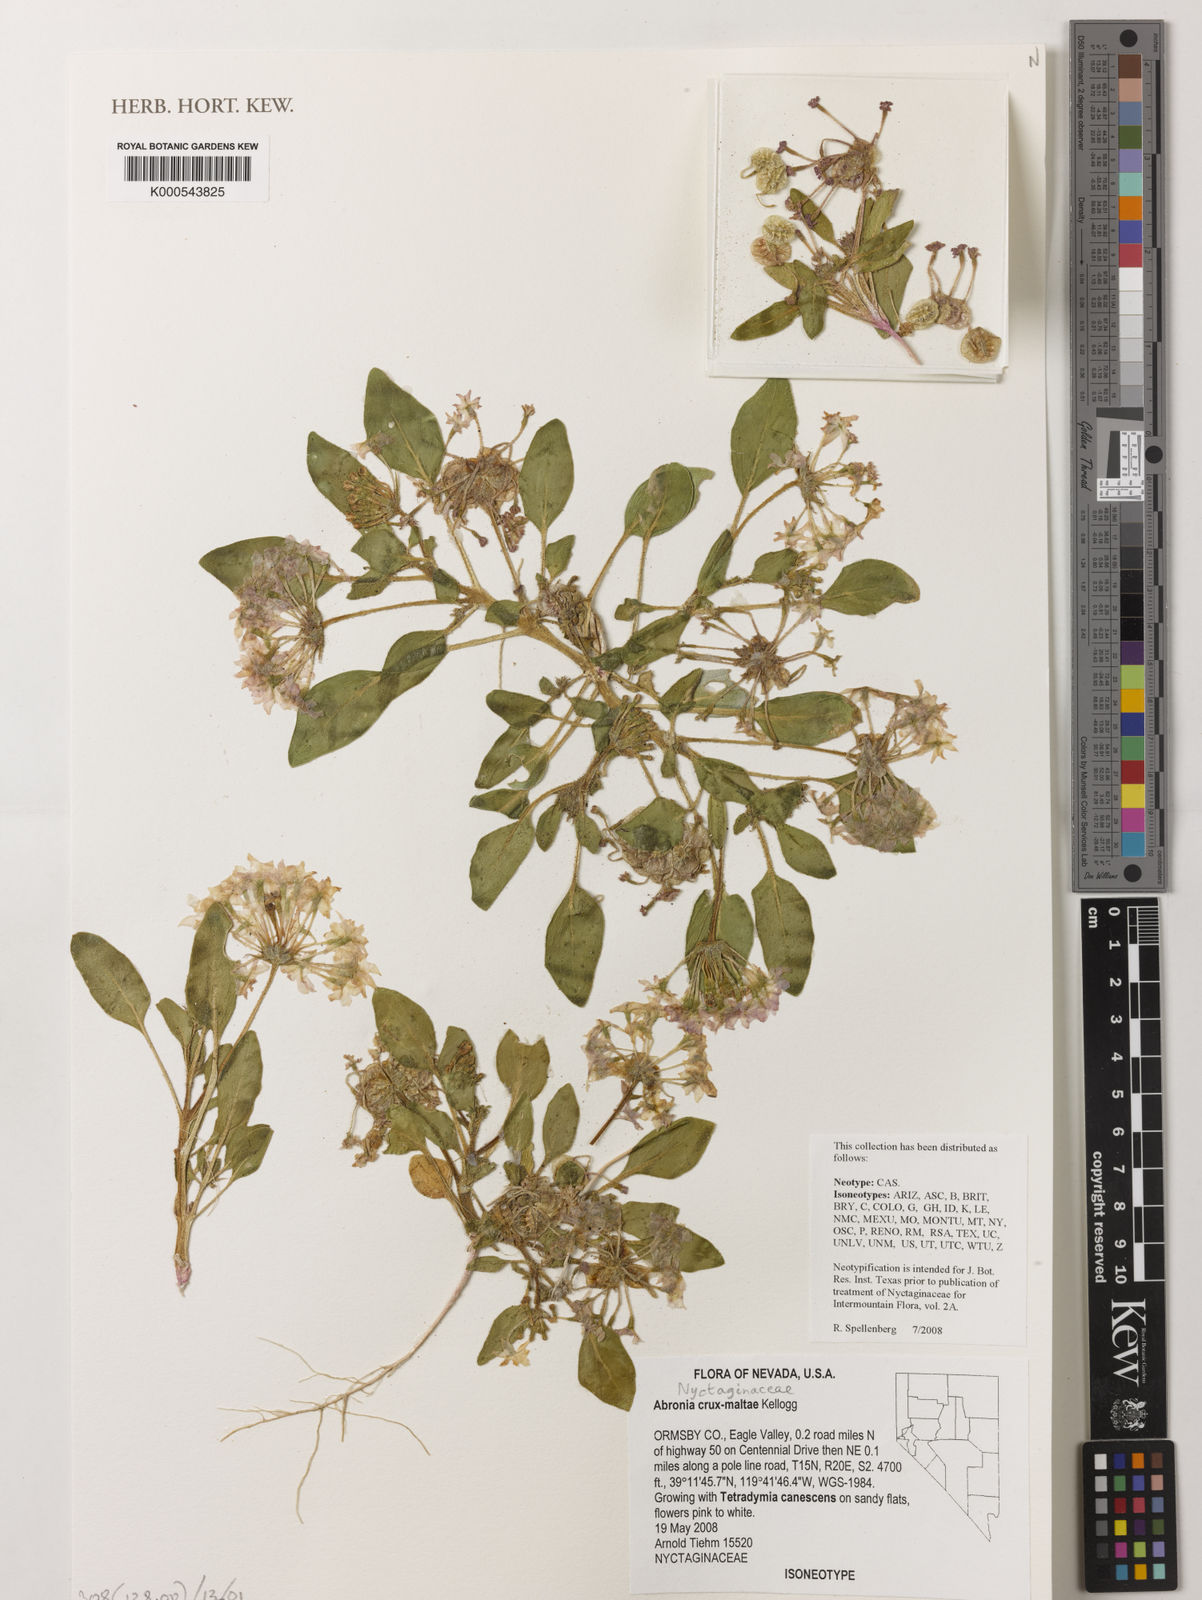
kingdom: Plantae
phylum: Tracheophyta
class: Magnoliopsida
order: Caryophyllales
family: Nyctaginaceae
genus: Tripterocalyx
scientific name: Tripterocalyx crux-maltae
